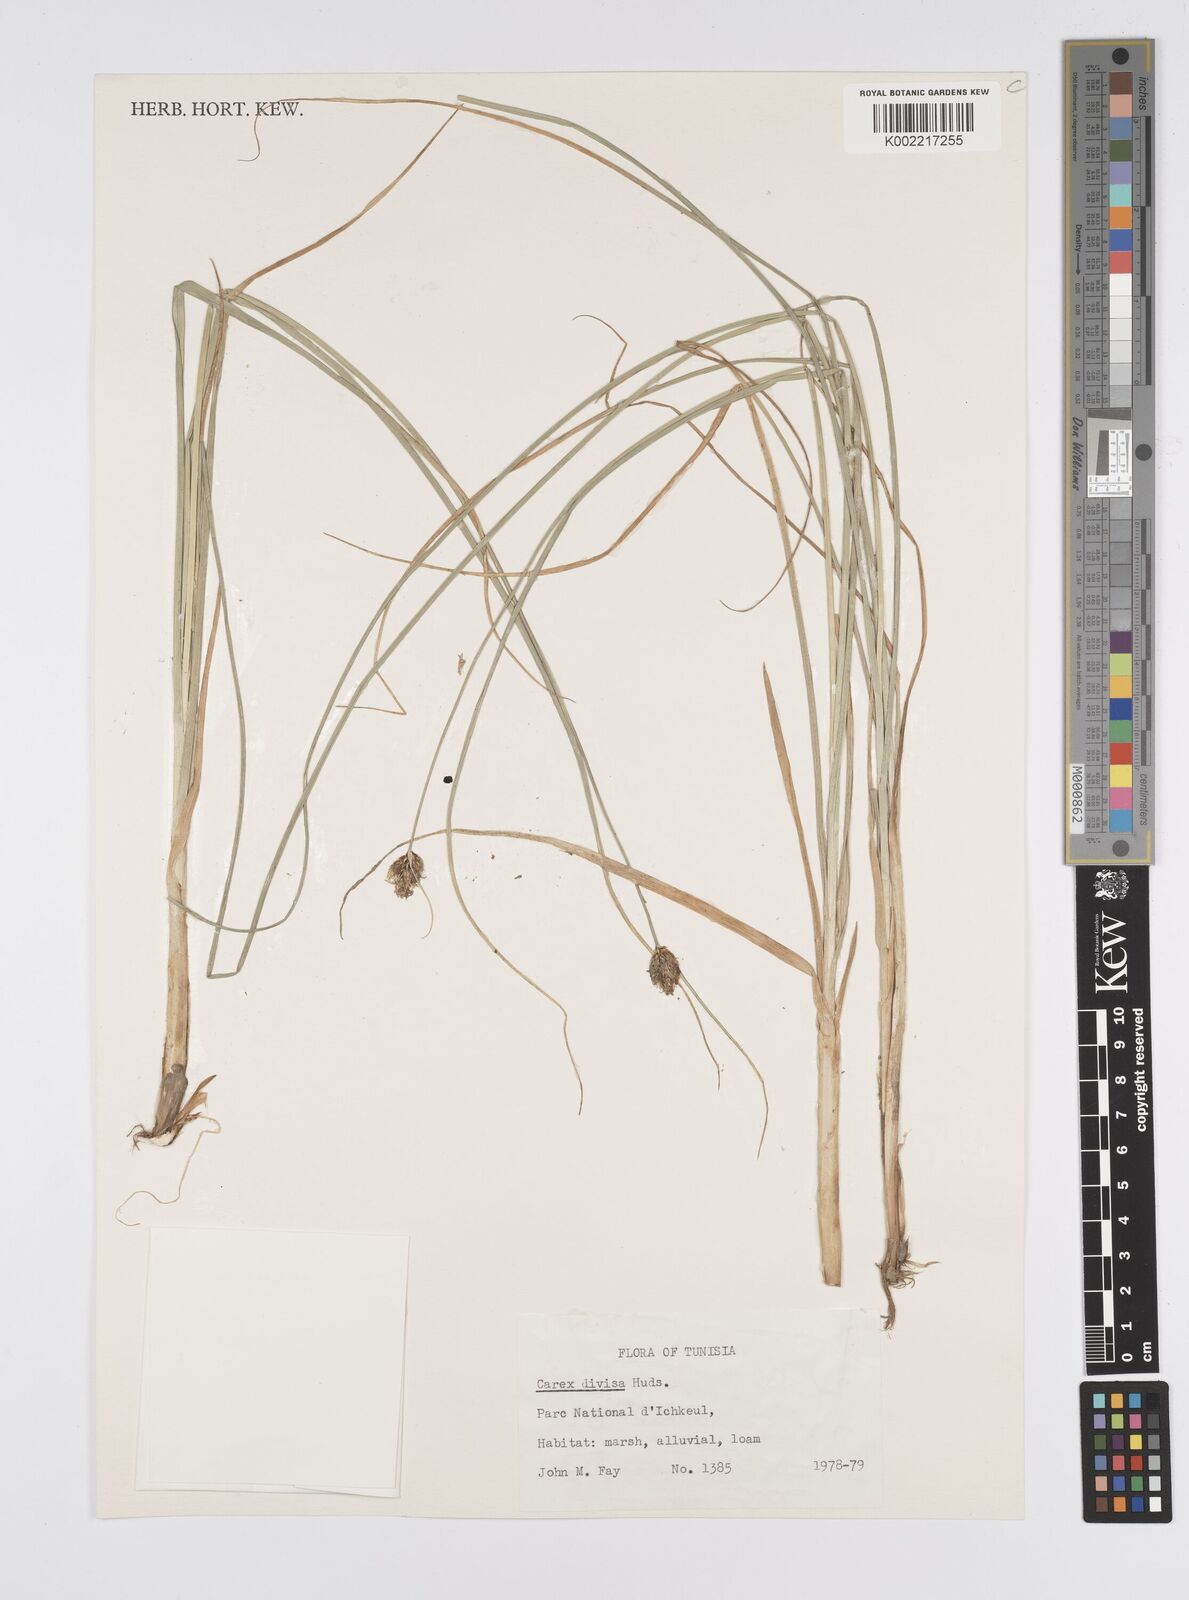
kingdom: Plantae
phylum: Tracheophyta
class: Liliopsida
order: Poales
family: Cyperaceae
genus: Carex
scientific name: Carex divisa
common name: Divided sedge
